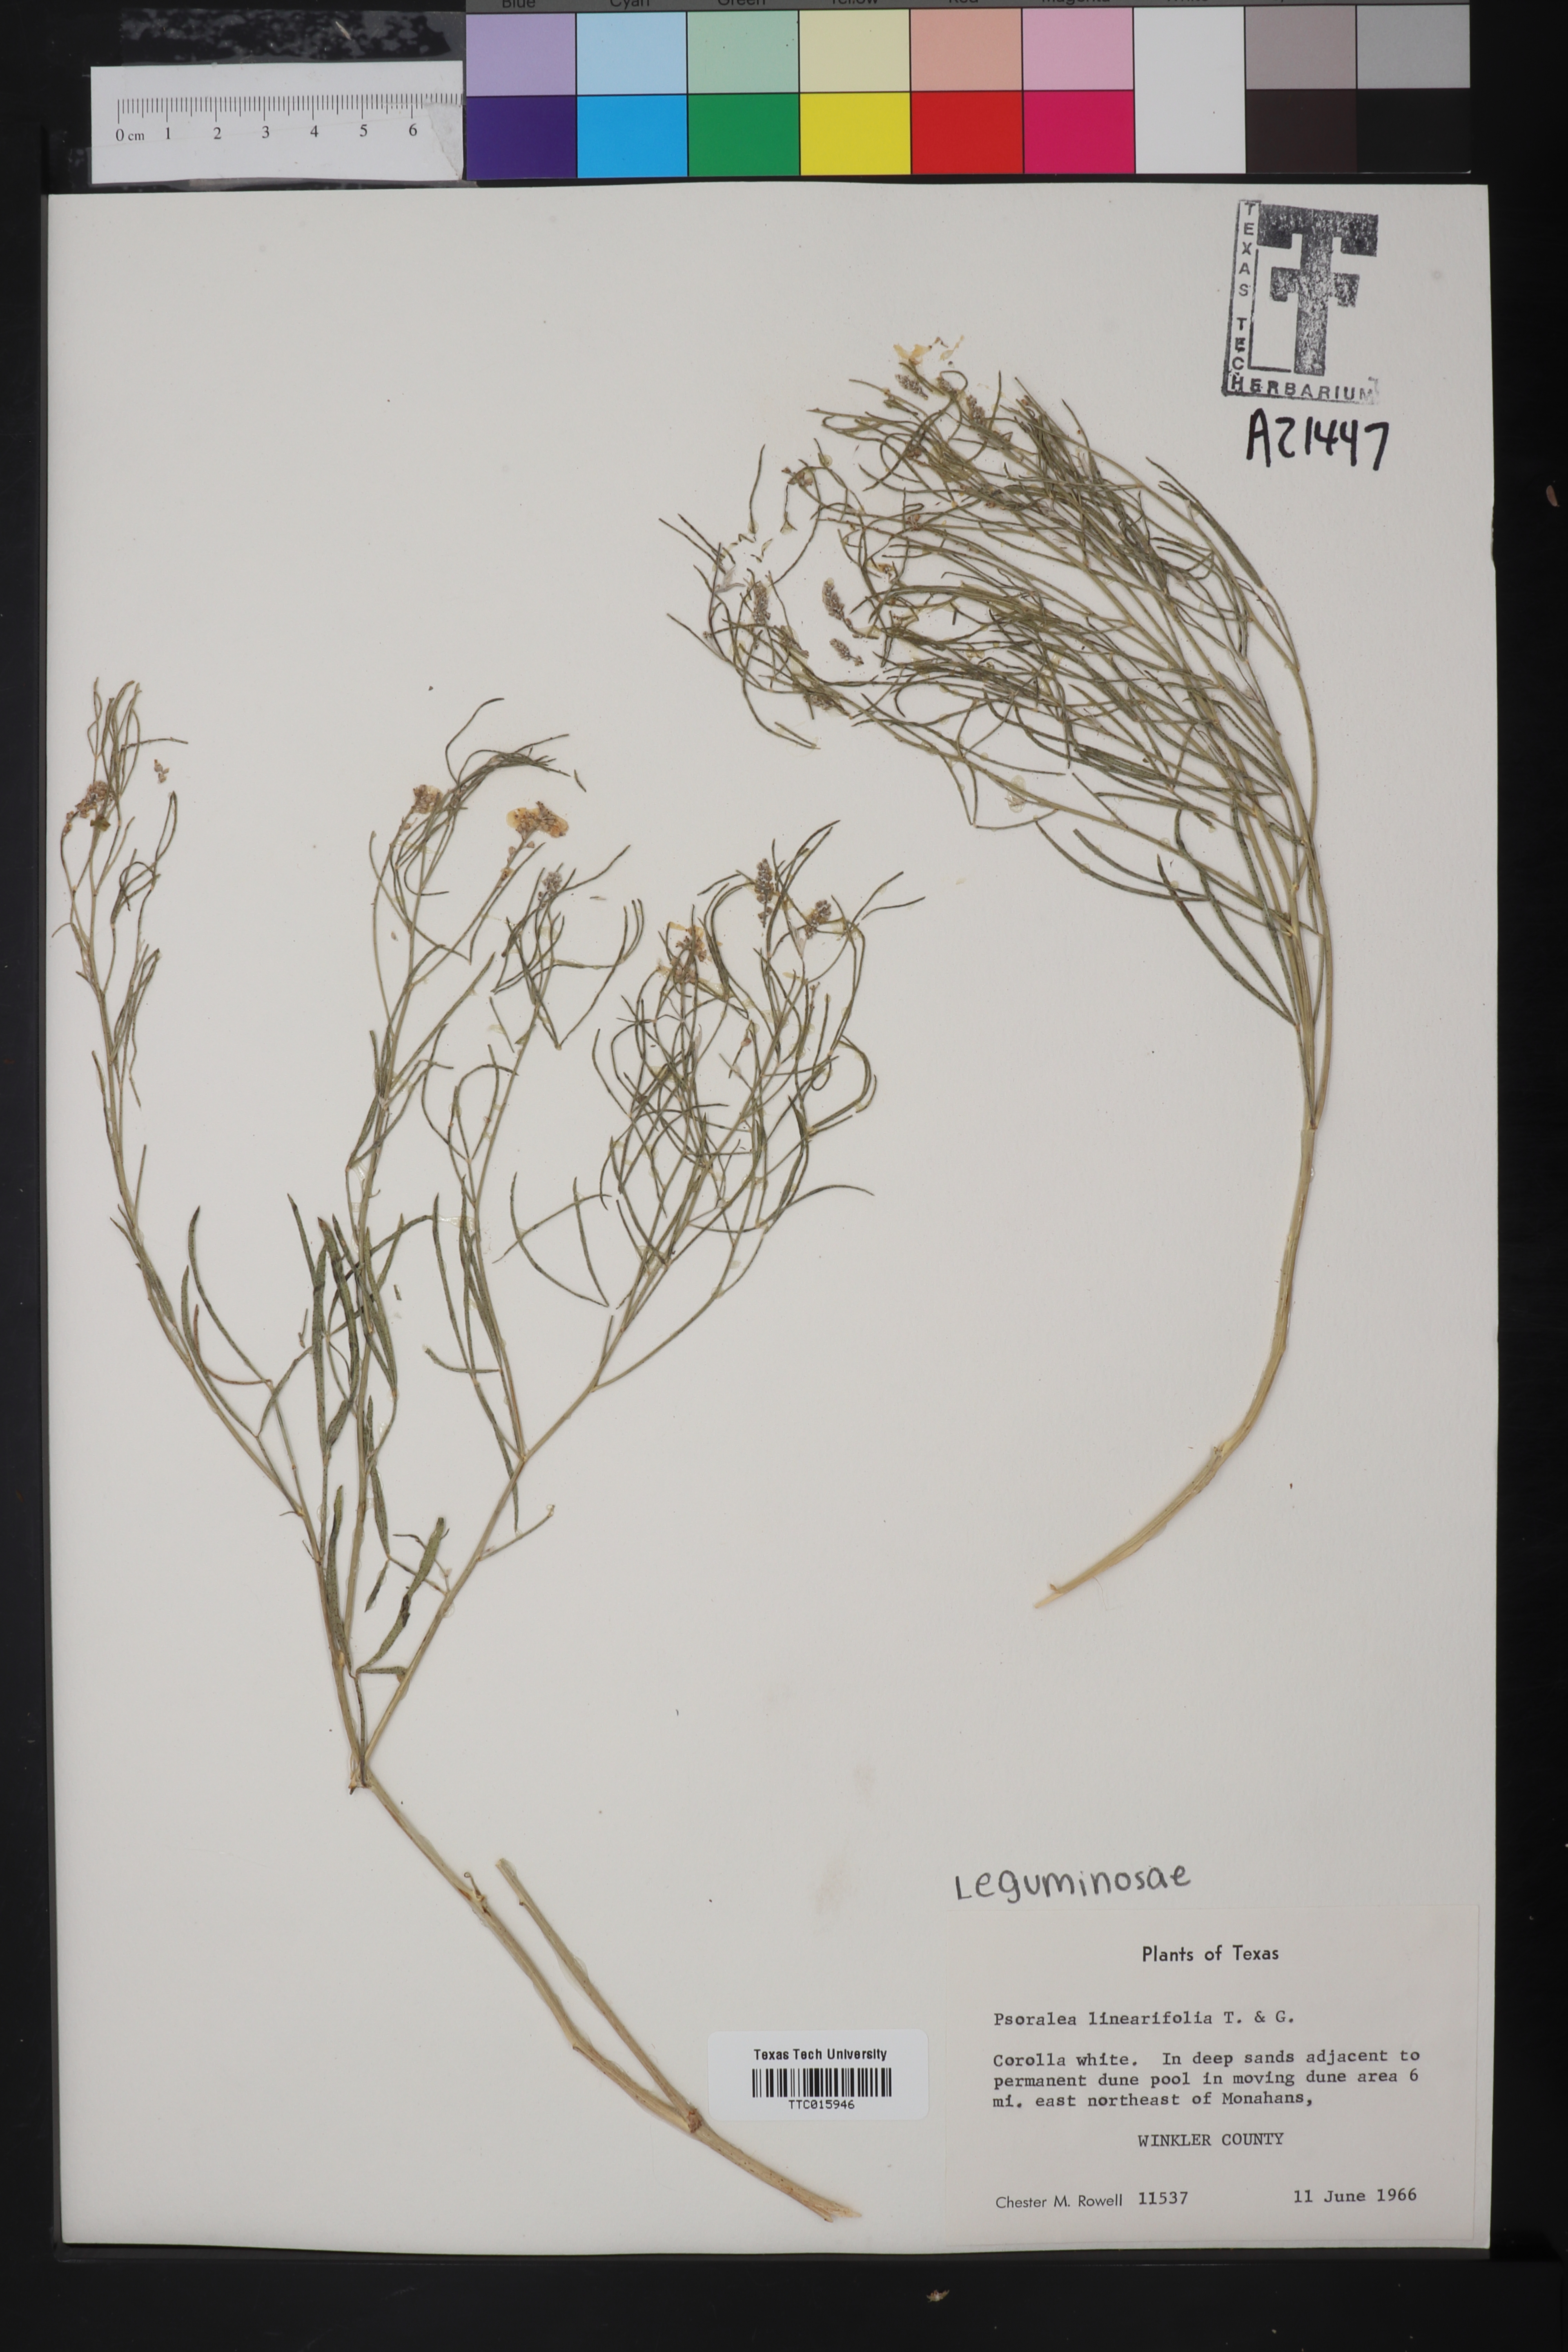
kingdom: Plantae
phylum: Tracheophyta
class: Magnoliopsida
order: Fabales
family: Fabaceae
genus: Mimosa
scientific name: Mimosa quadrivalvis
